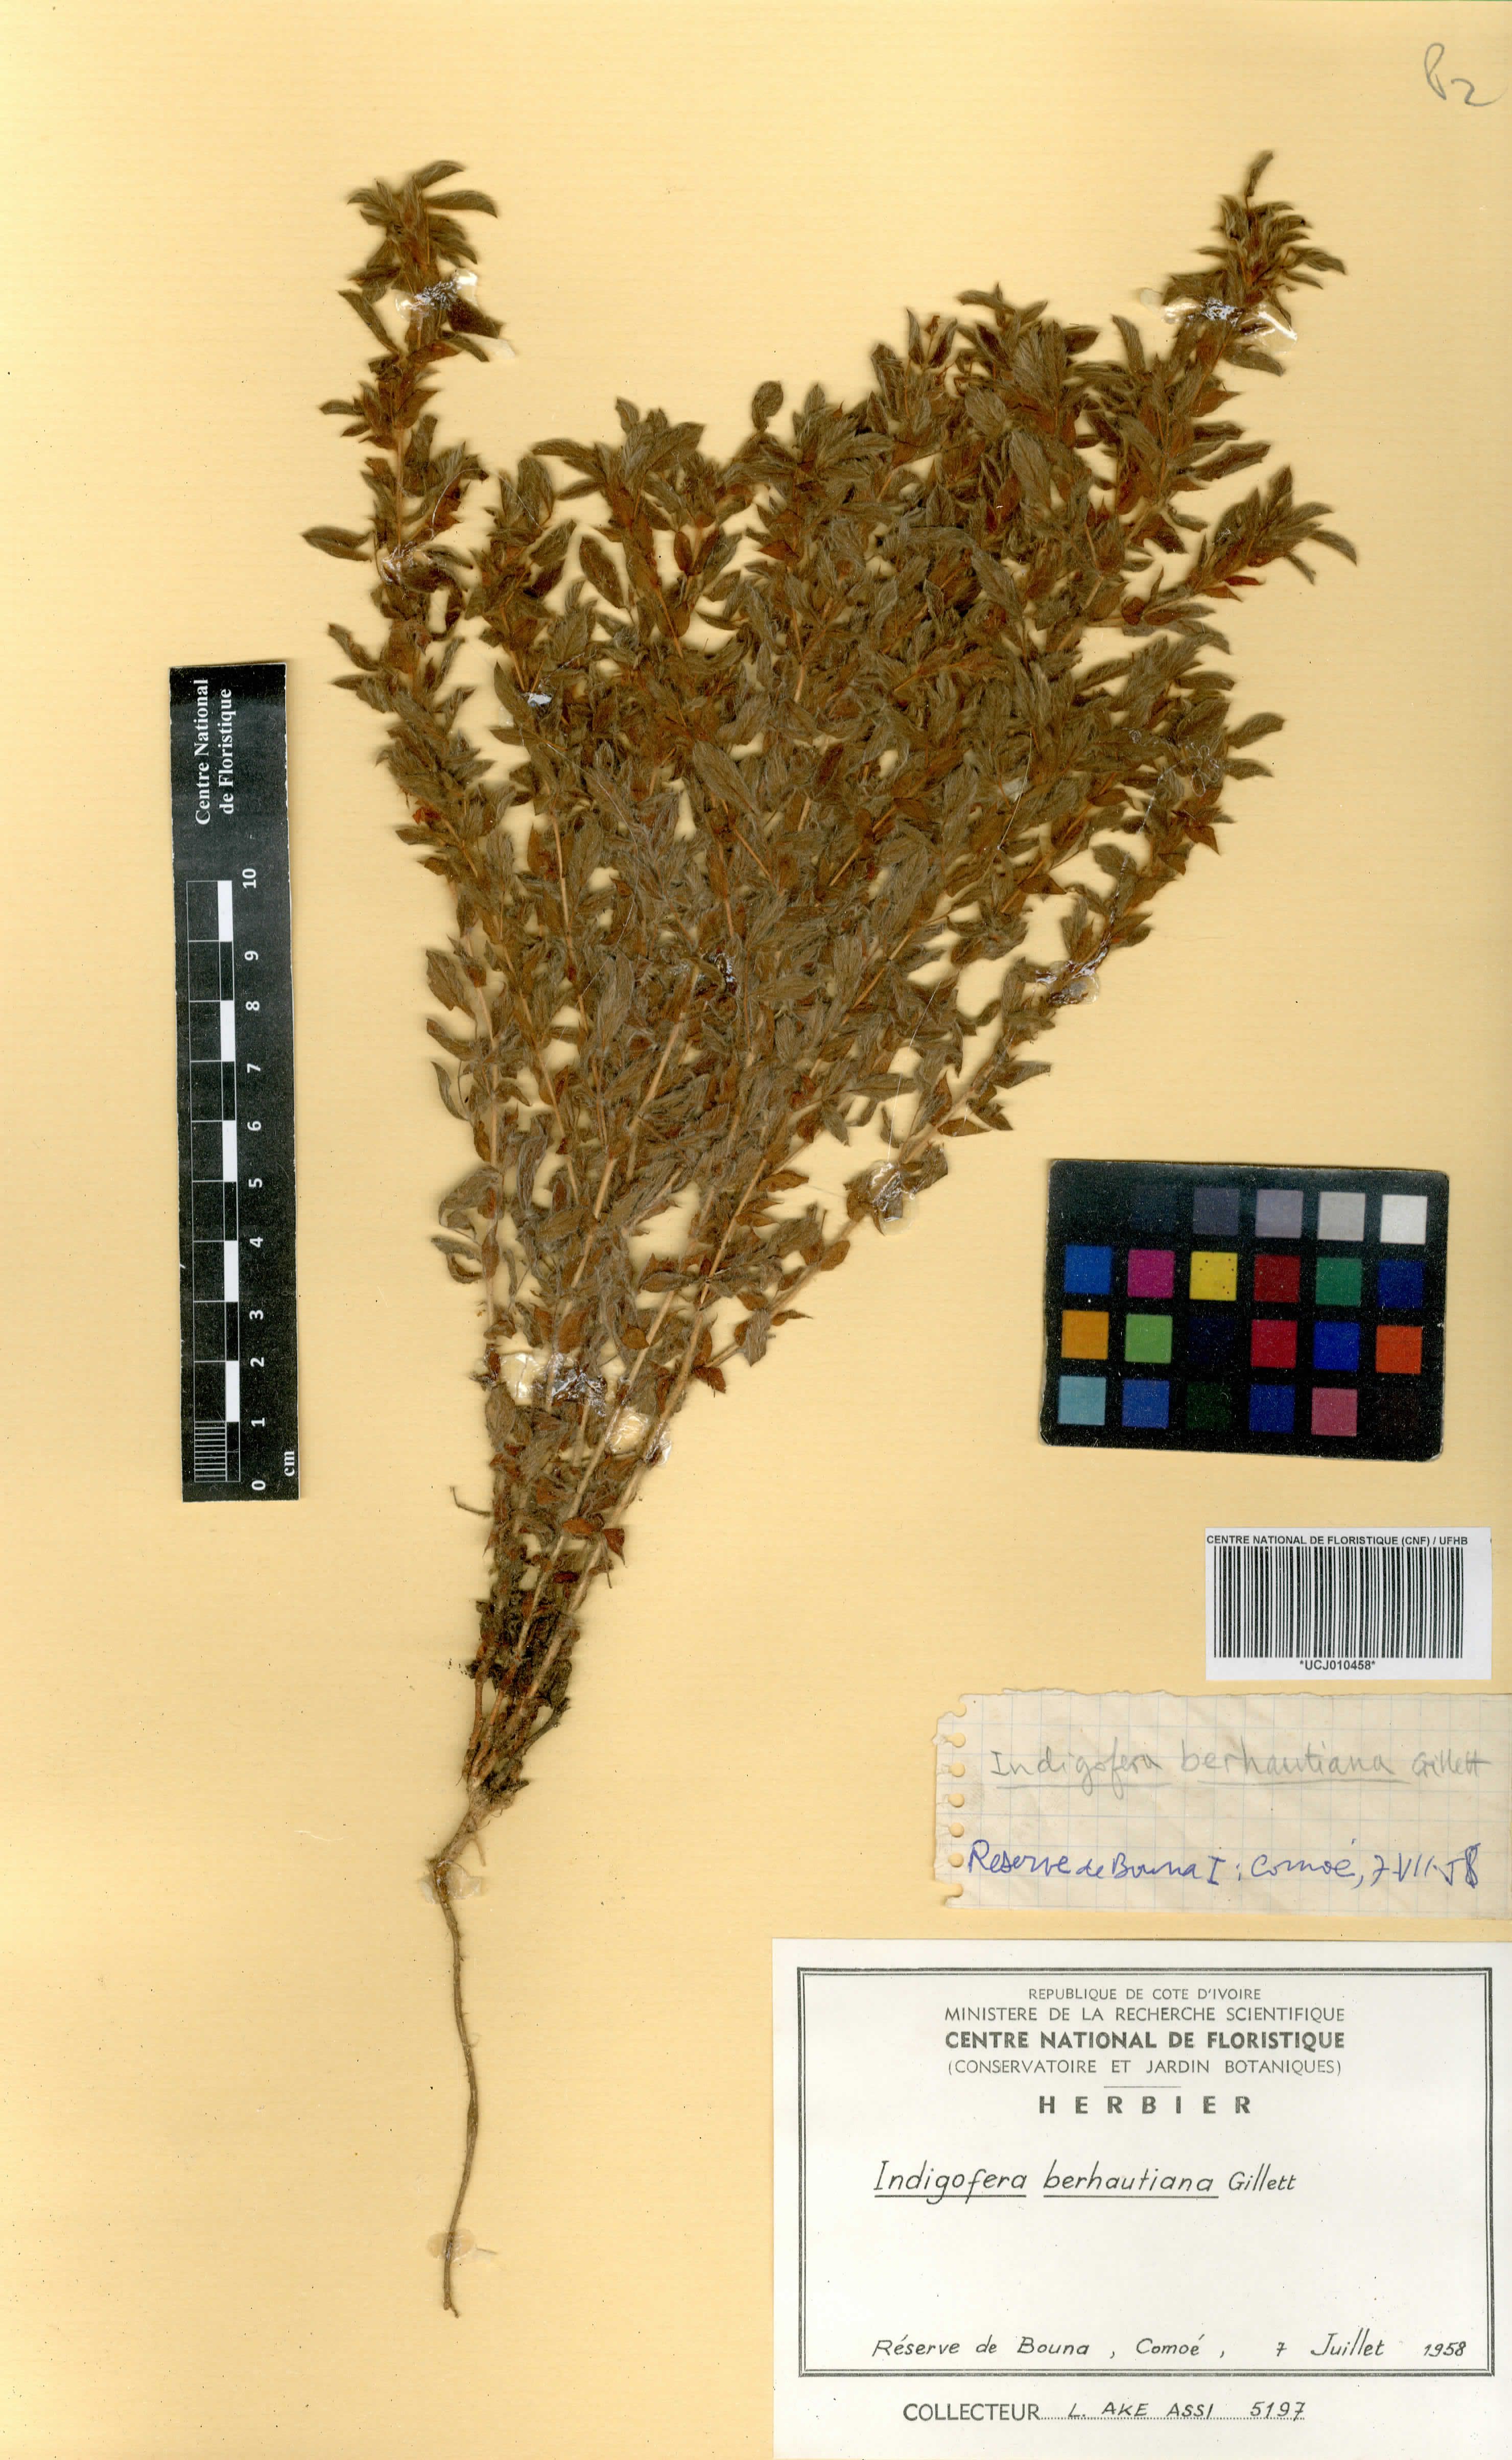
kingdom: Plantae
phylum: Tracheophyta
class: Magnoliopsida
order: Fabales
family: Fabaceae
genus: Indigofera
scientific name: Indigofera berhautiana
